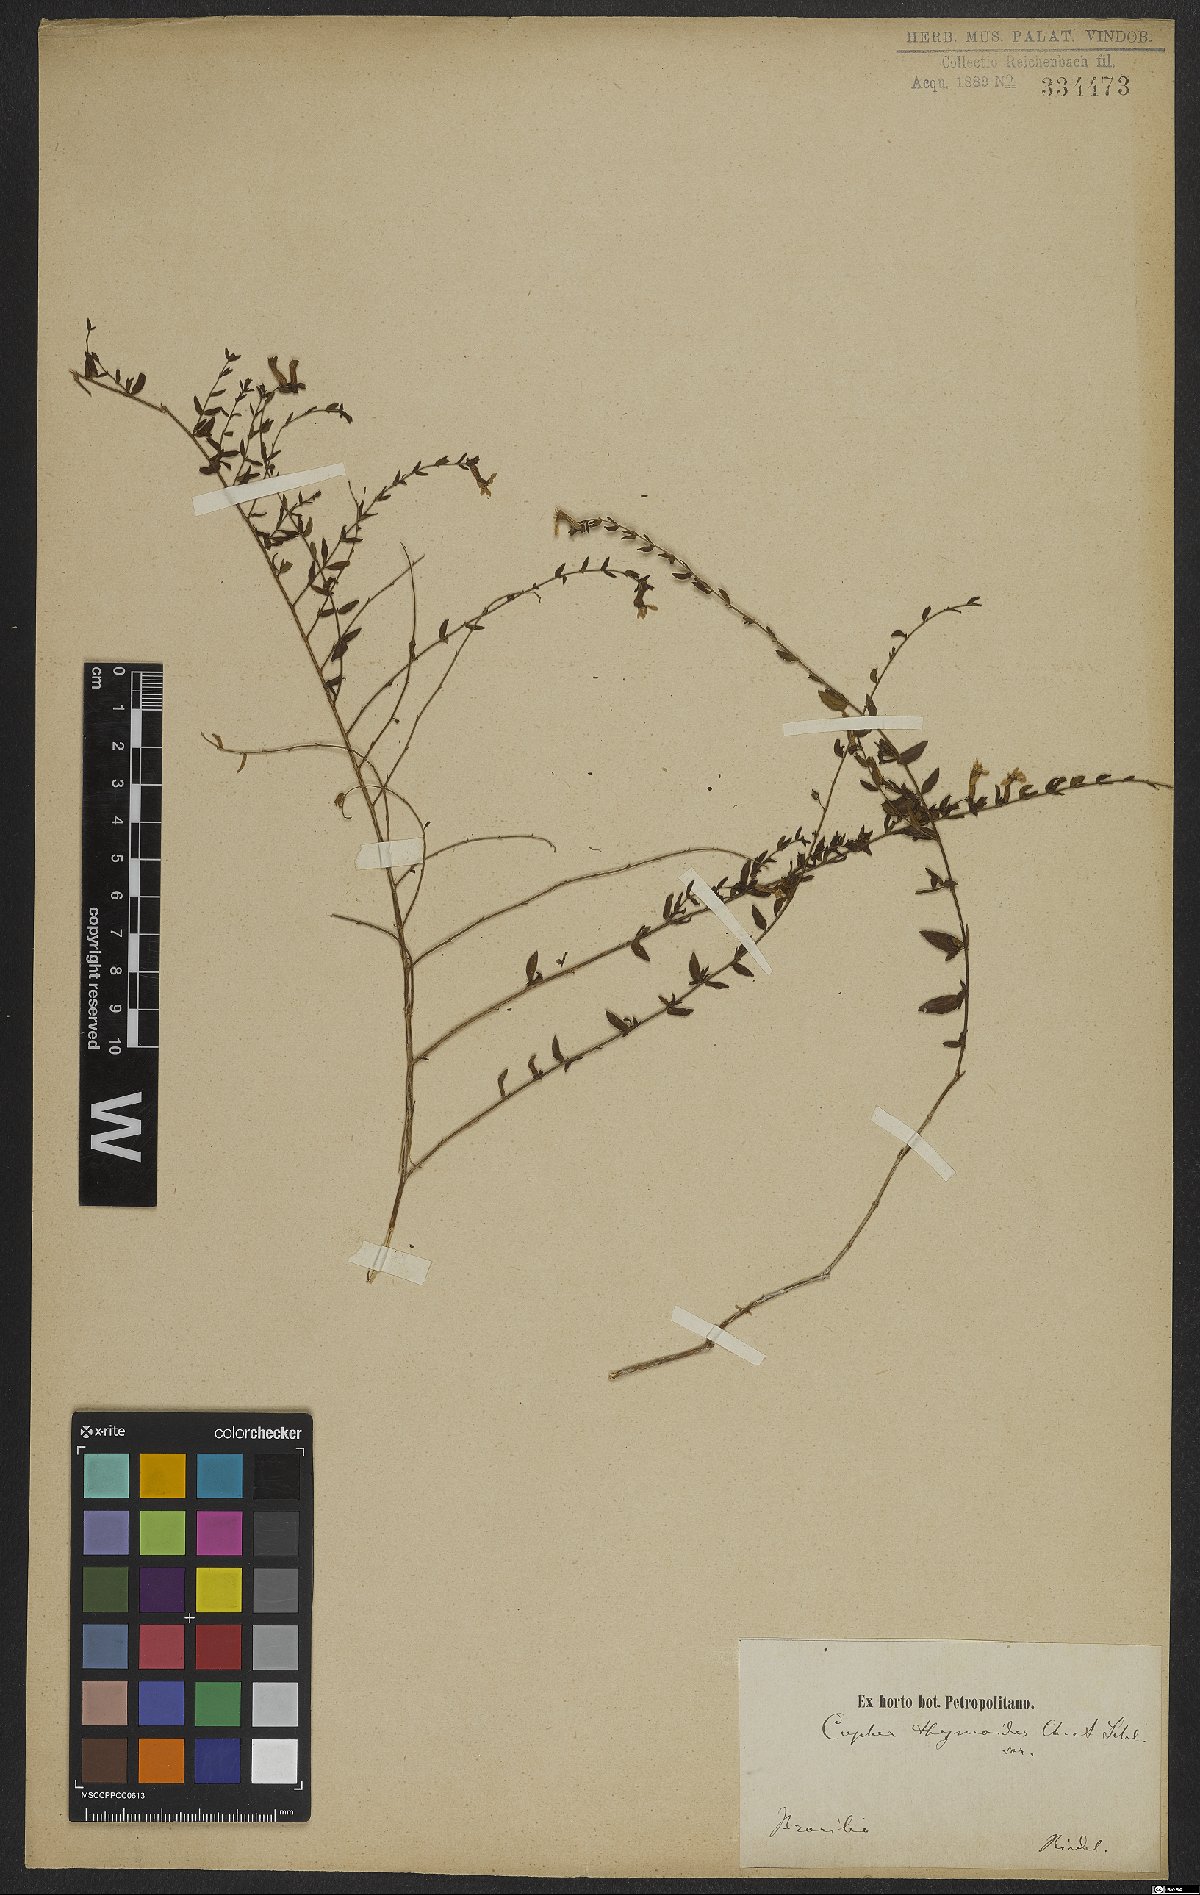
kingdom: Plantae
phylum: Tracheophyta
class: Magnoliopsida
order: Myrtales
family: Lythraceae
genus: Cuphea
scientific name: Cuphea thymoides
